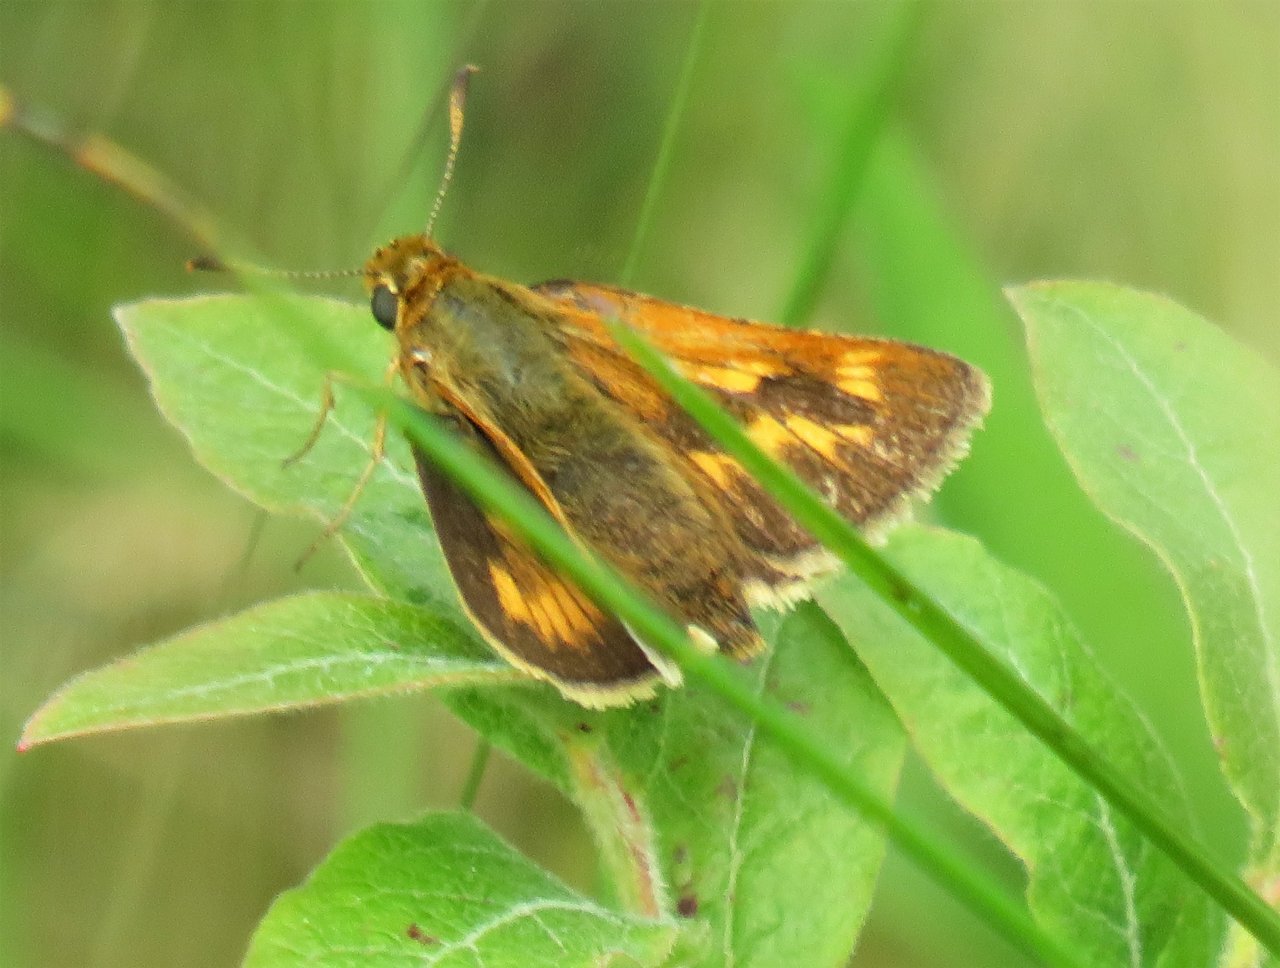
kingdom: Animalia
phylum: Arthropoda
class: Insecta
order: Lepidoptera
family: Hesperiidae
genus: Polites
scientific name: Polites
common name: Long Dash Skipper
